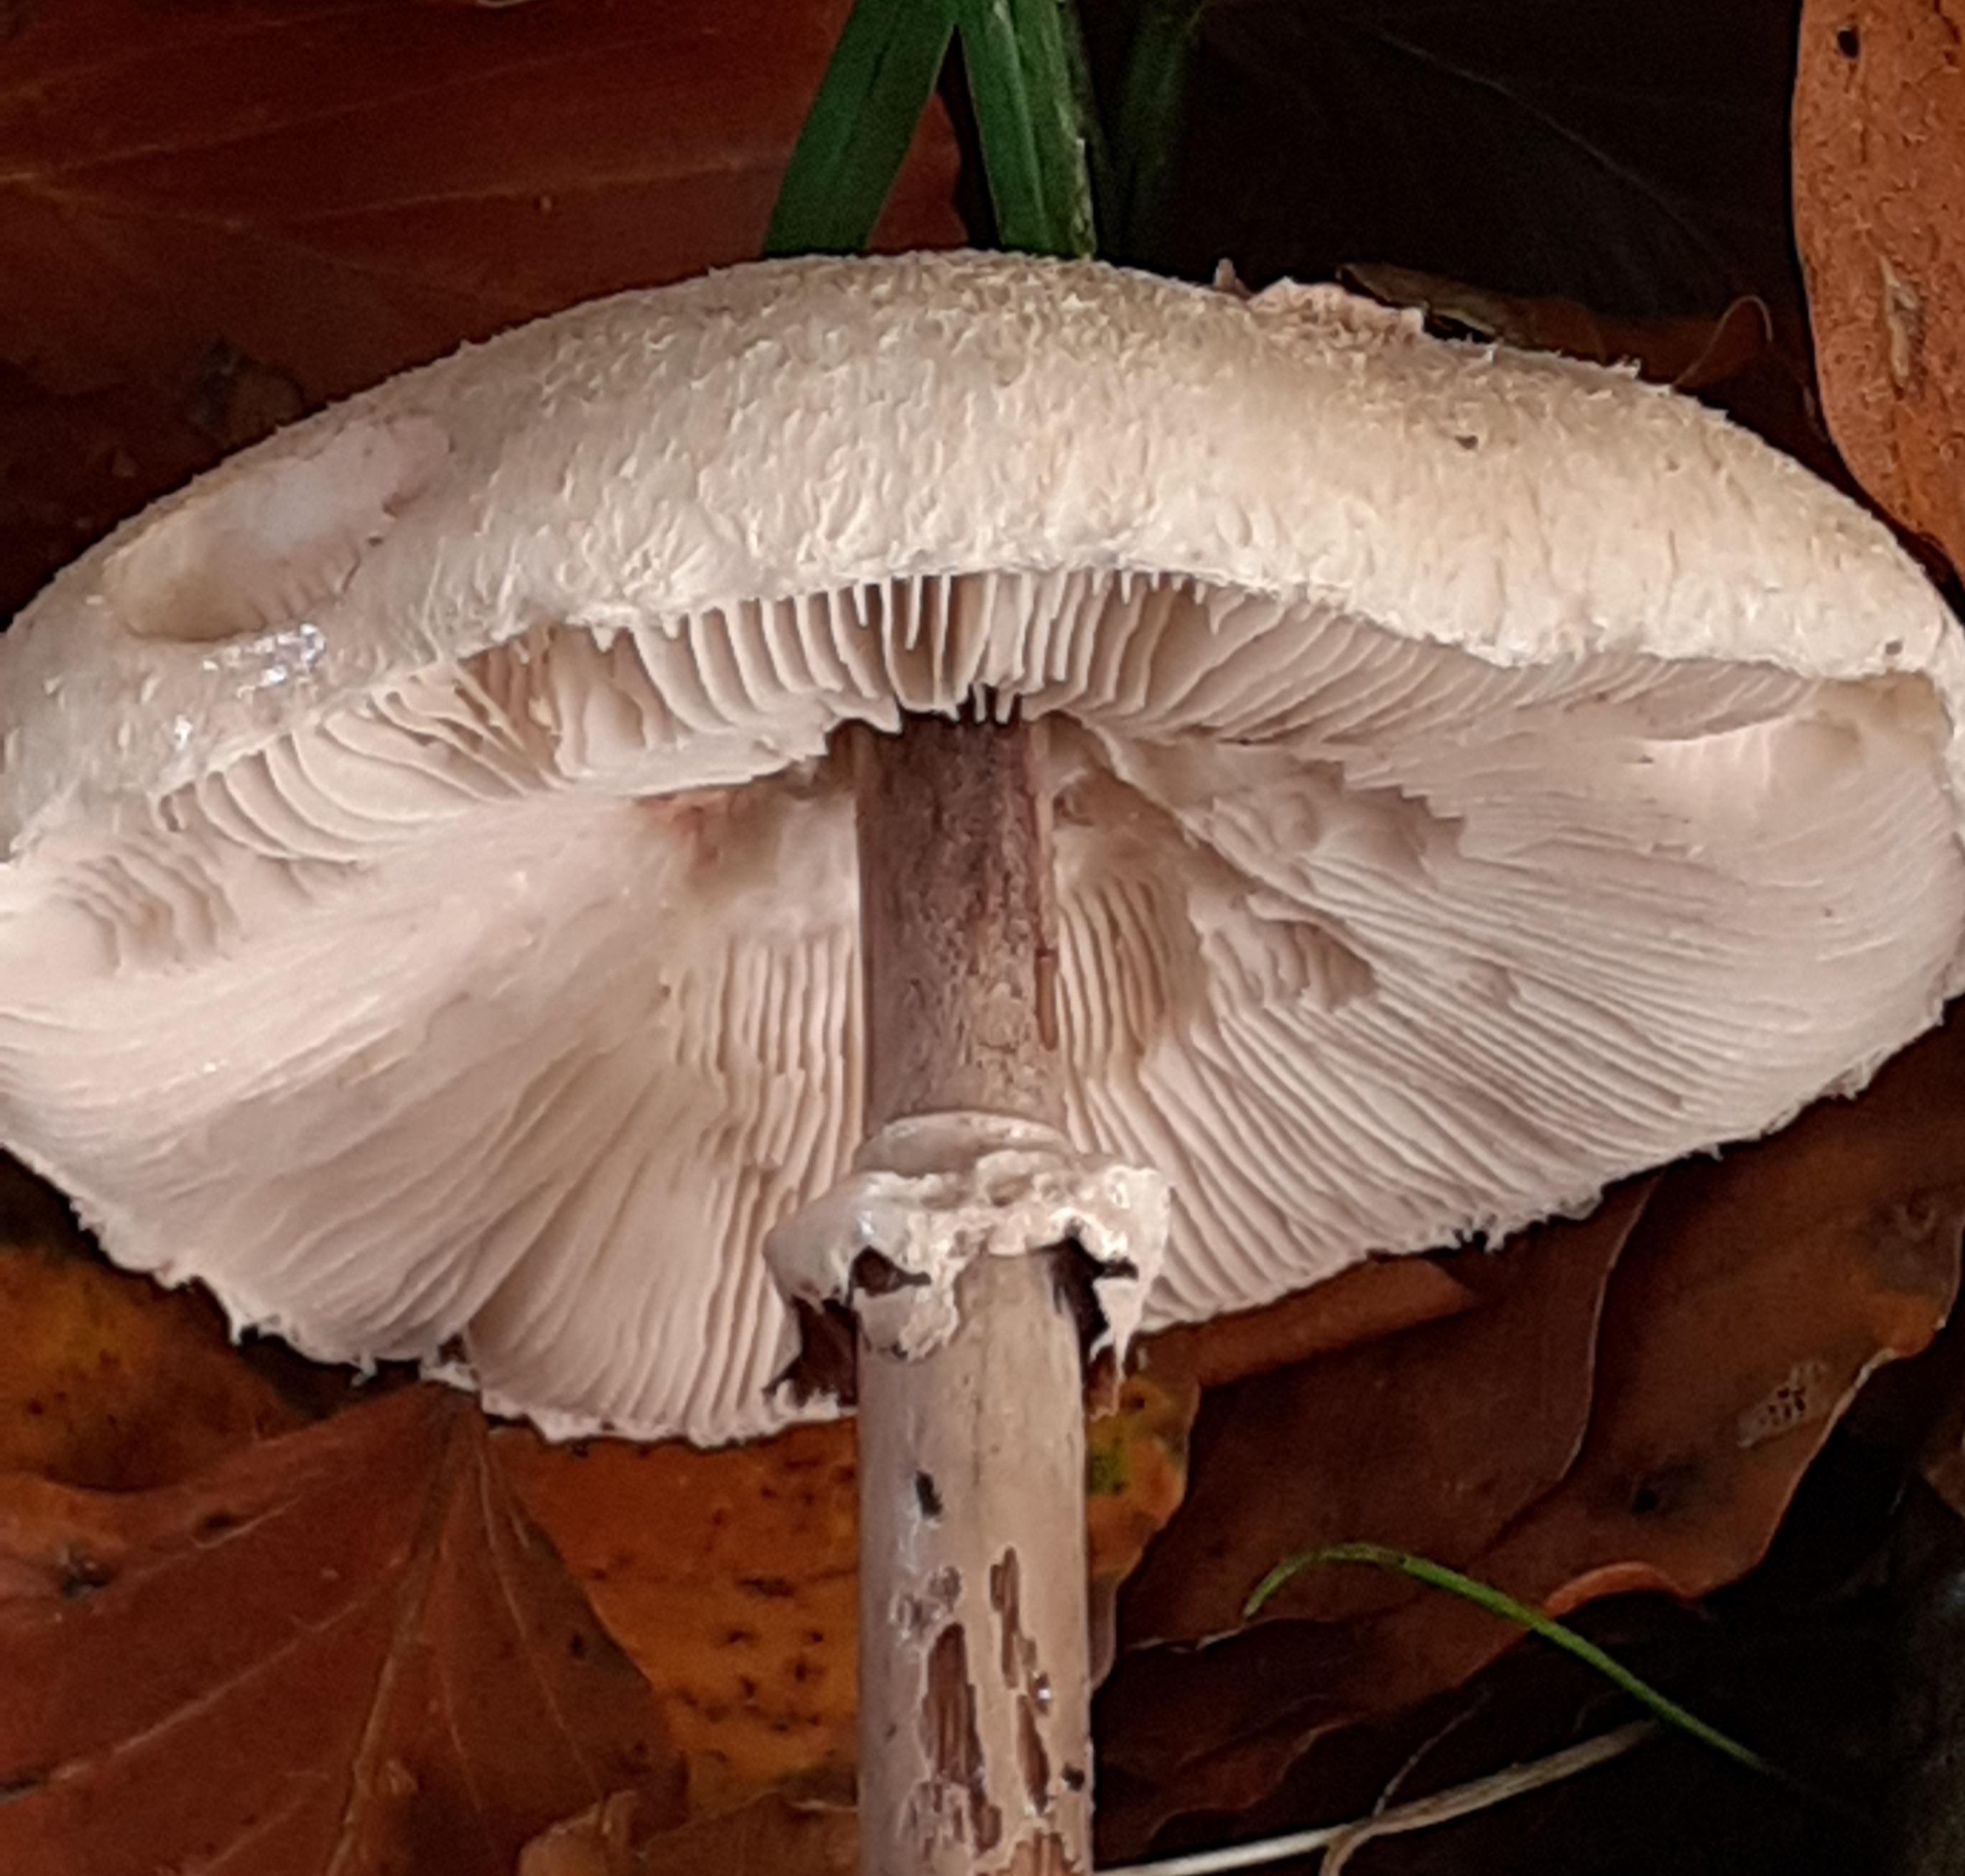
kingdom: Fungi
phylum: Basidiomycota
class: Agaricomycetes
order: Agaricales
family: Agaricaceae
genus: Macrolepiota
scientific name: Macrolepiota mastoidea
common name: puklet kæmpeparasolhat
